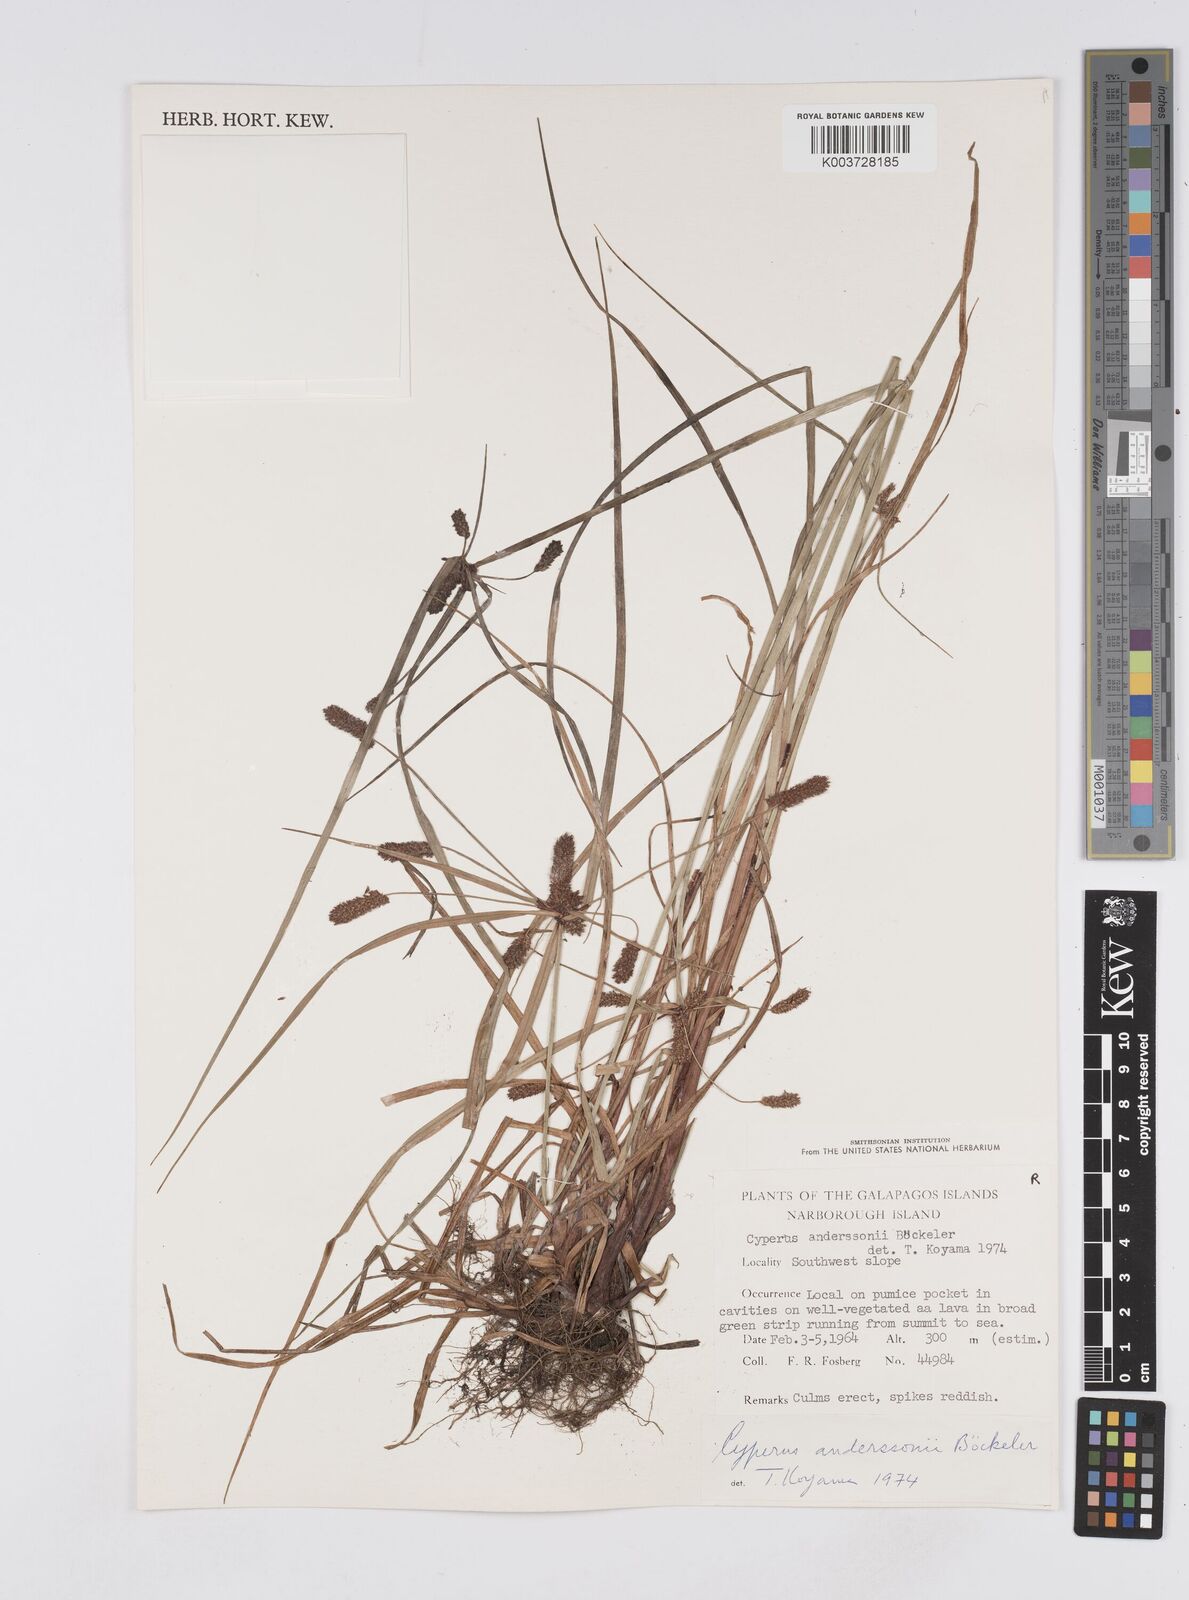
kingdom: Plantae
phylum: Tracheophyta
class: Liliopsida
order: Poales
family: Cyperaceae
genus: Cyperus
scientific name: Cyperus anderssonii
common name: Andersson's sedge
